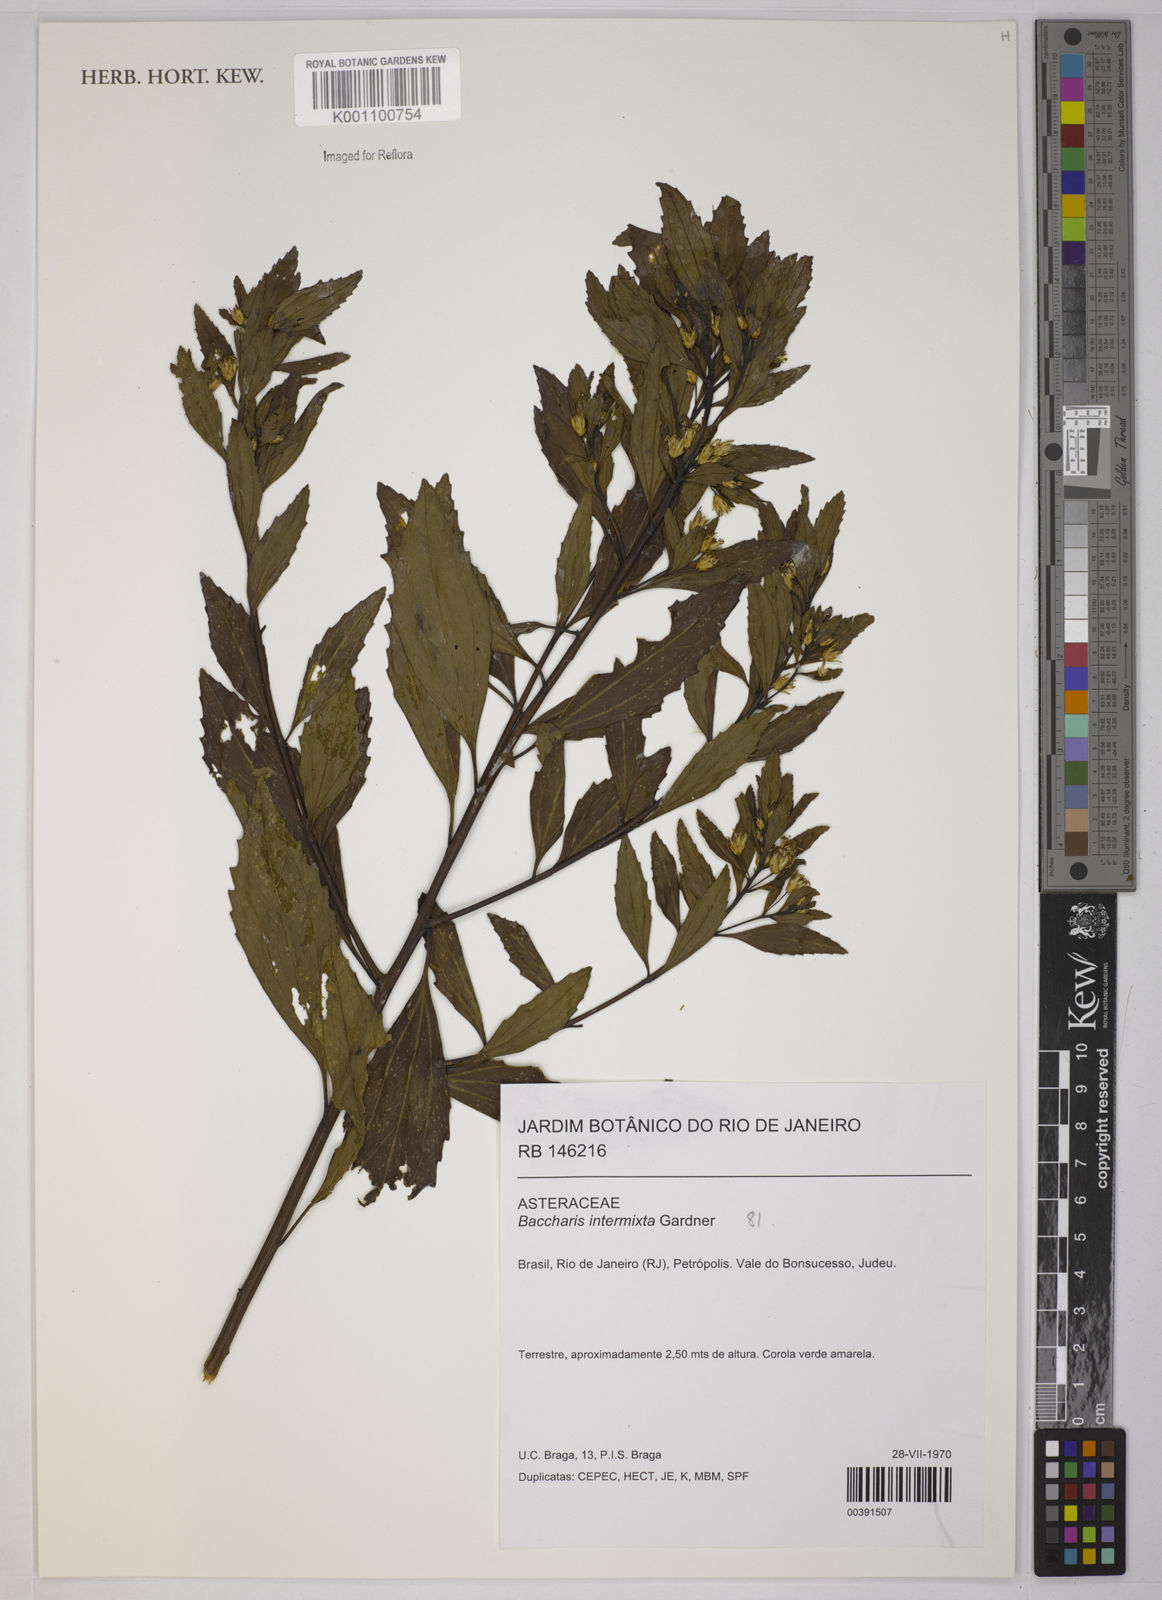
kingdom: Plantae
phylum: Tracheophyta
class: Magnoliopsida
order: Asterales
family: Asteraceae
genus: Baccharis
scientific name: Baccharis intermixta
